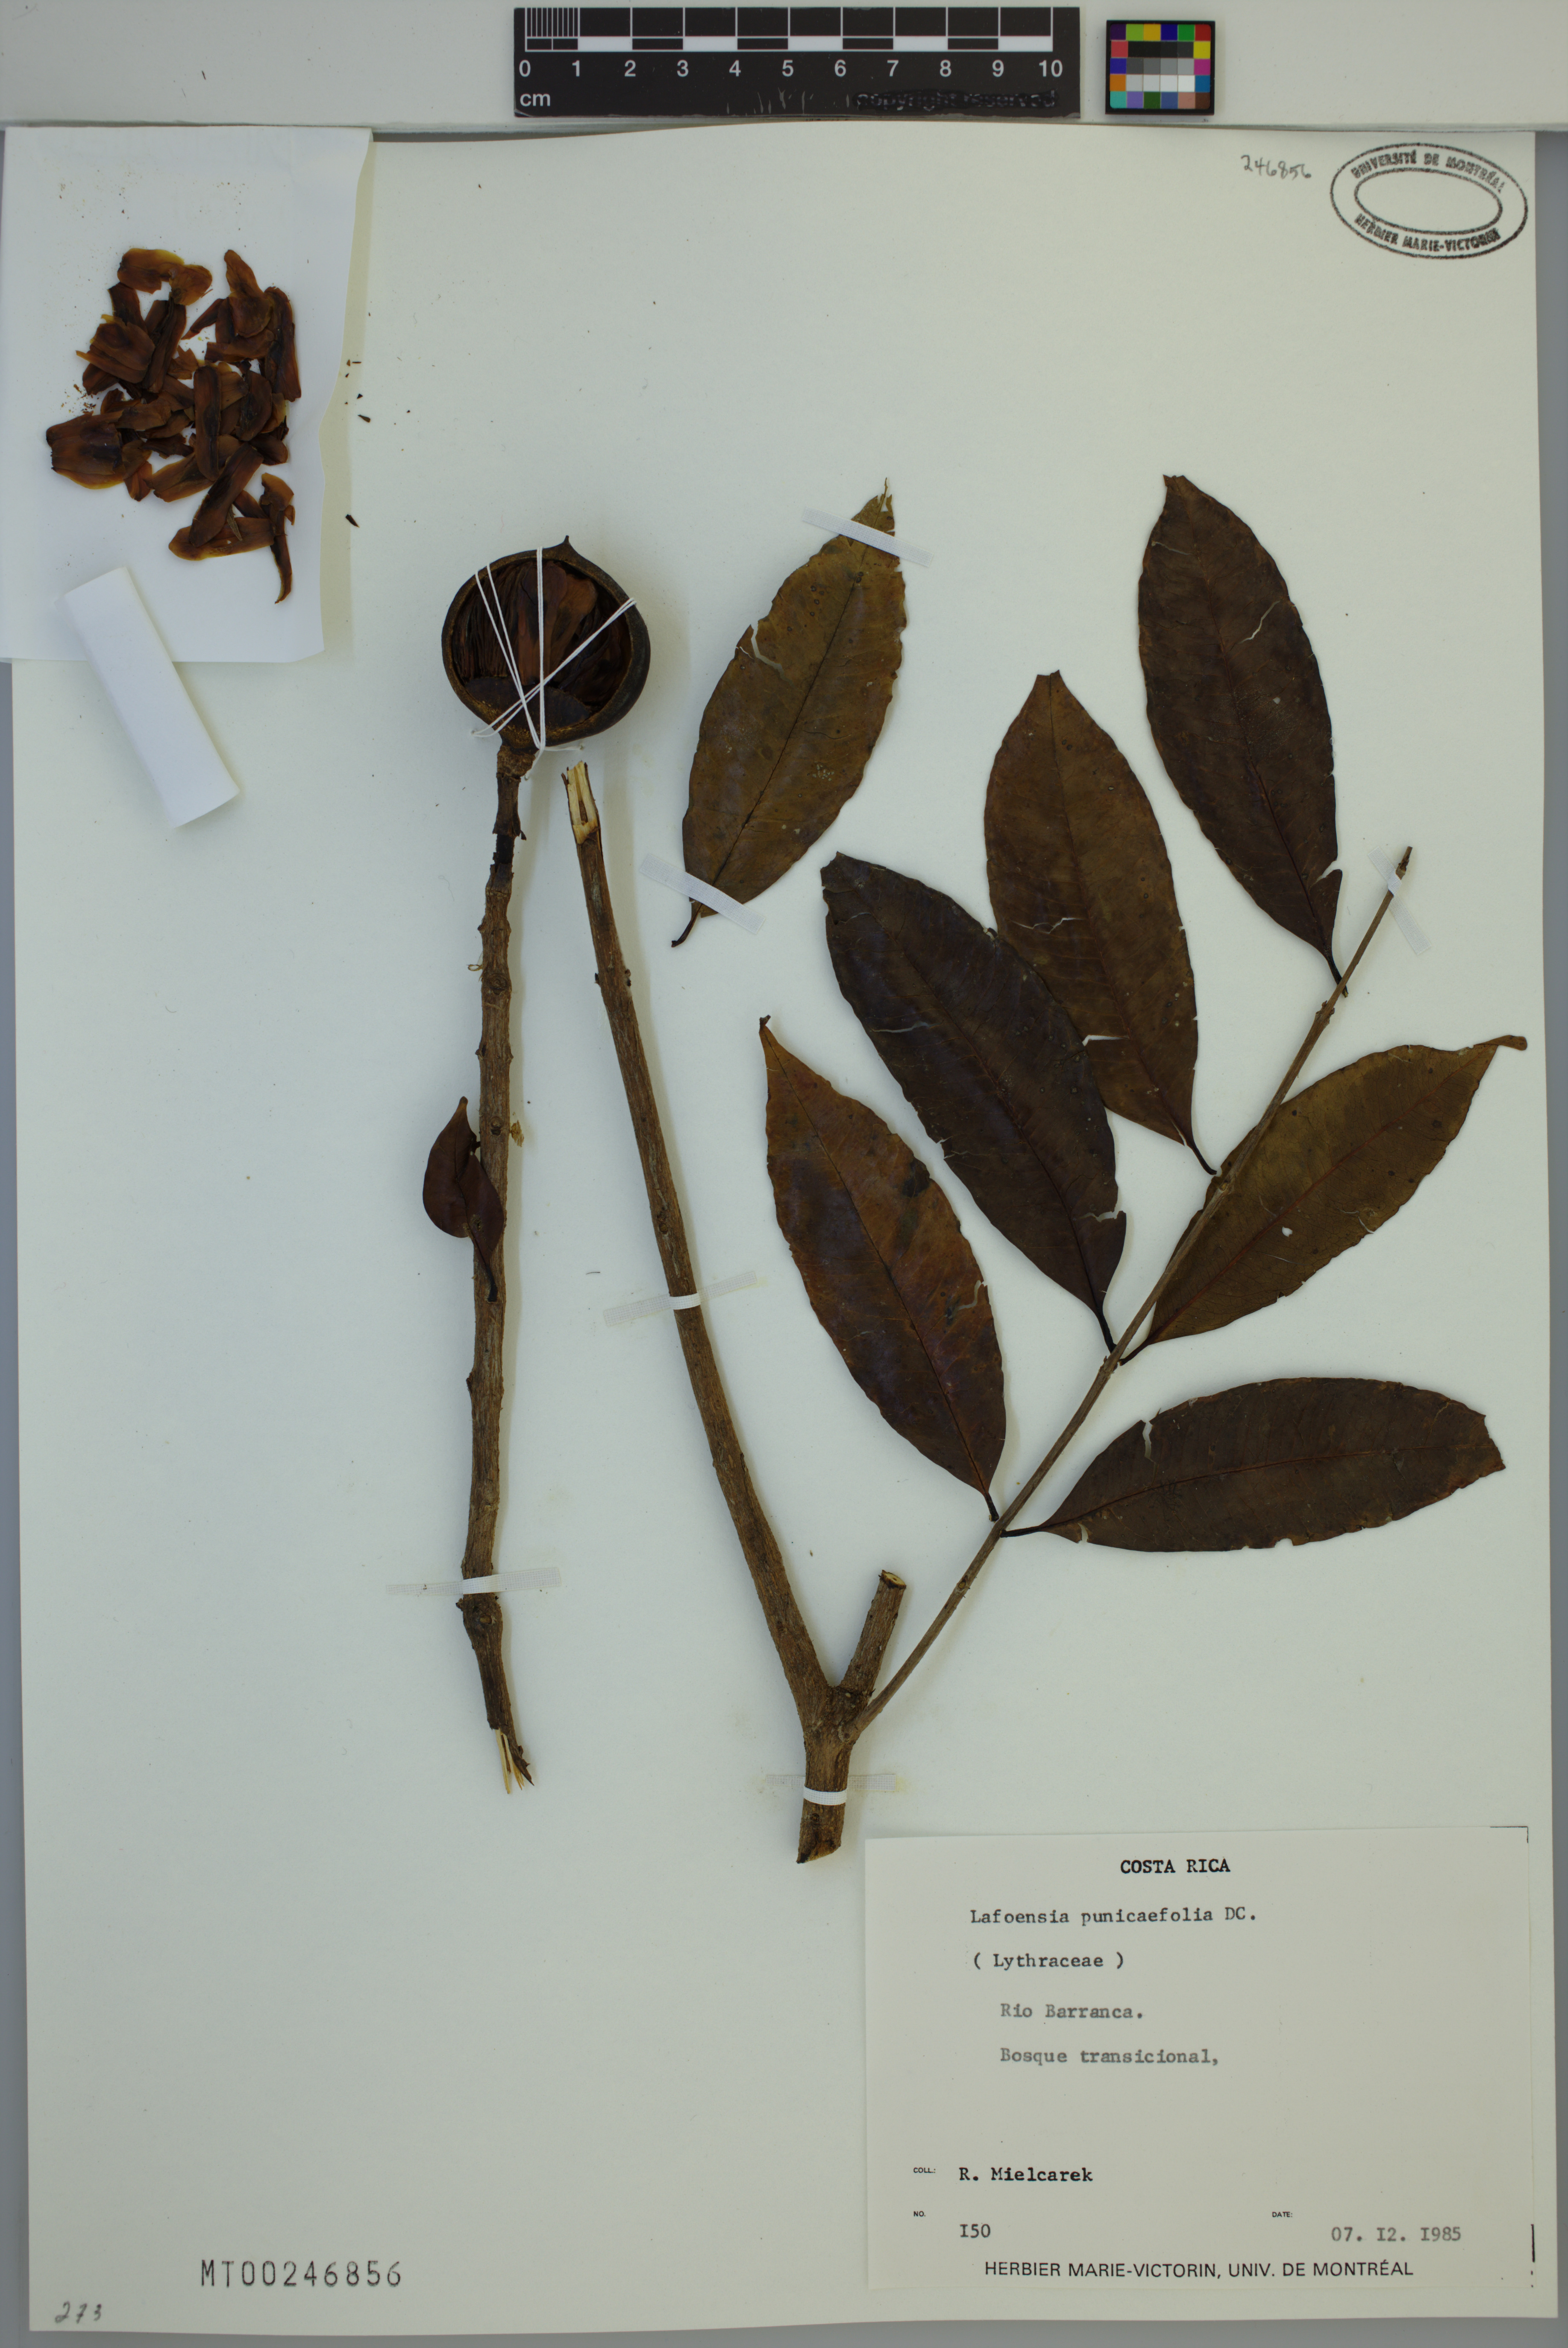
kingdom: Plantae
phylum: Tracheophyta
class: Magnoliopsida
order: Myrtales
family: Lythraceae
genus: Lafoensia
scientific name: Lafoensia punicifolia
